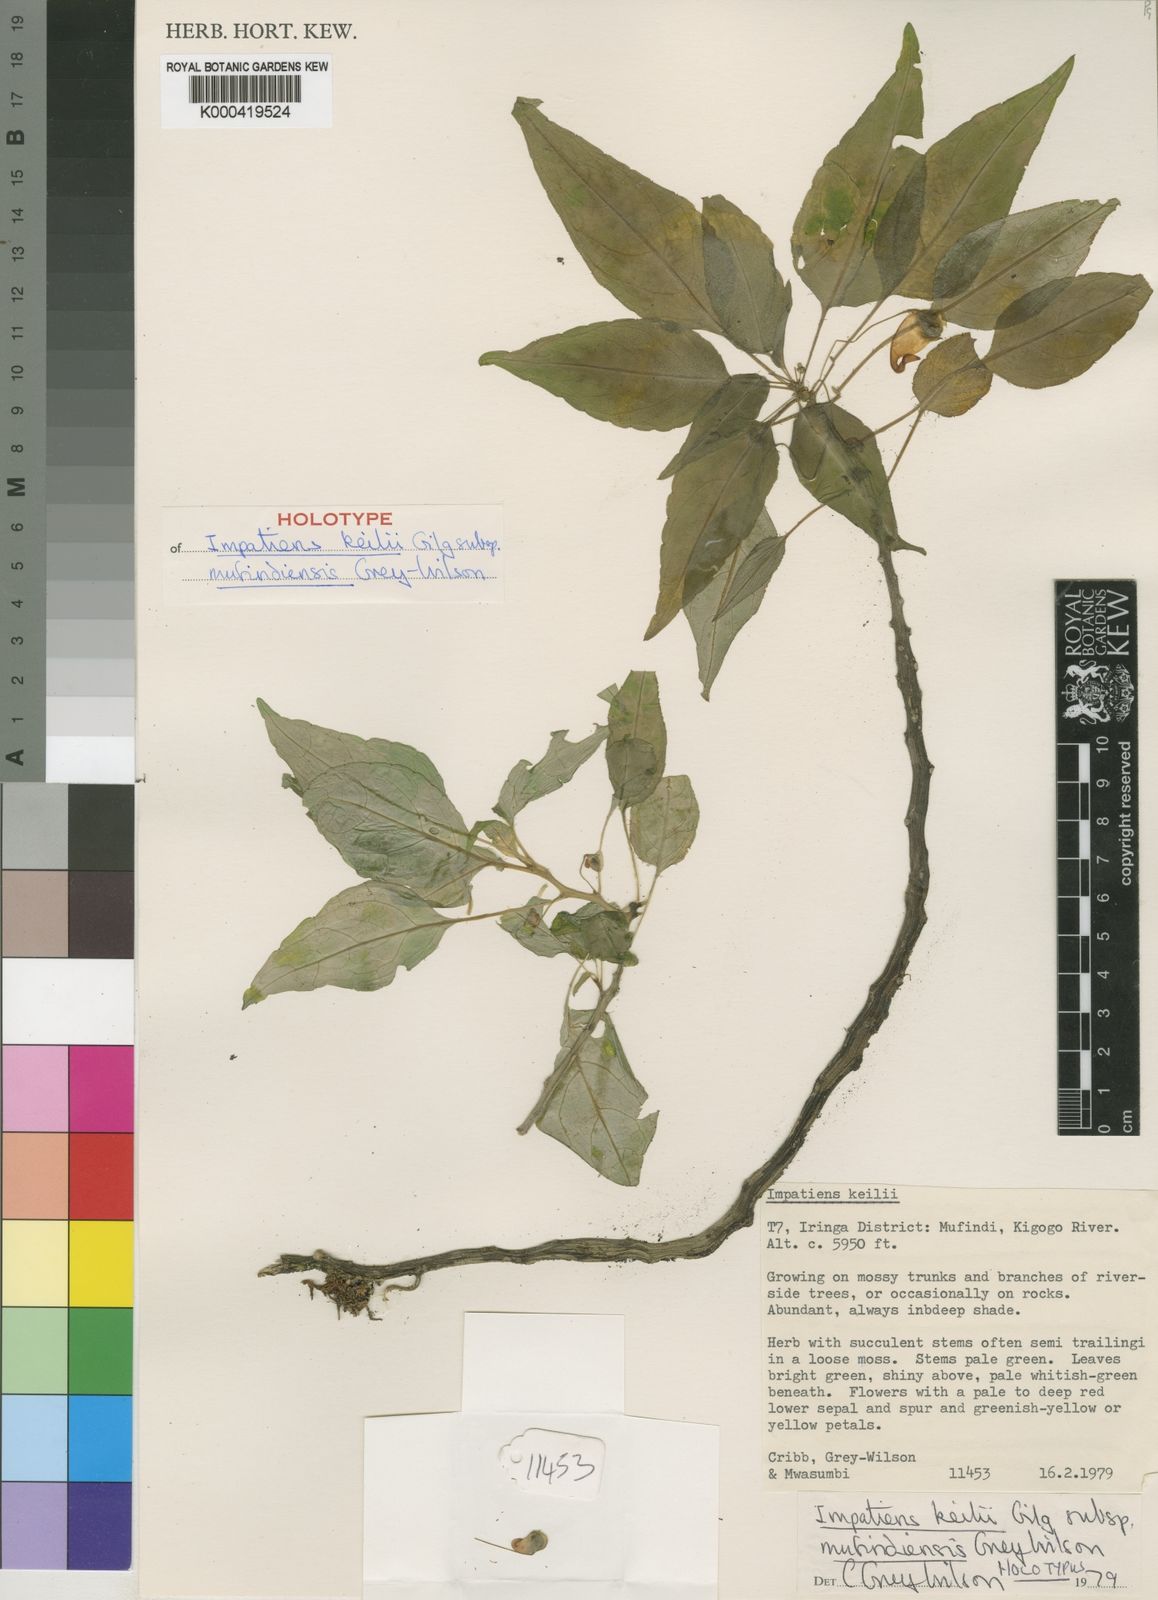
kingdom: Plantae
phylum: Tracheophyta
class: Magnoliopsida
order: Ericales
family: Balsaminaceae
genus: Impatiens
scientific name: Impatiens keilii
